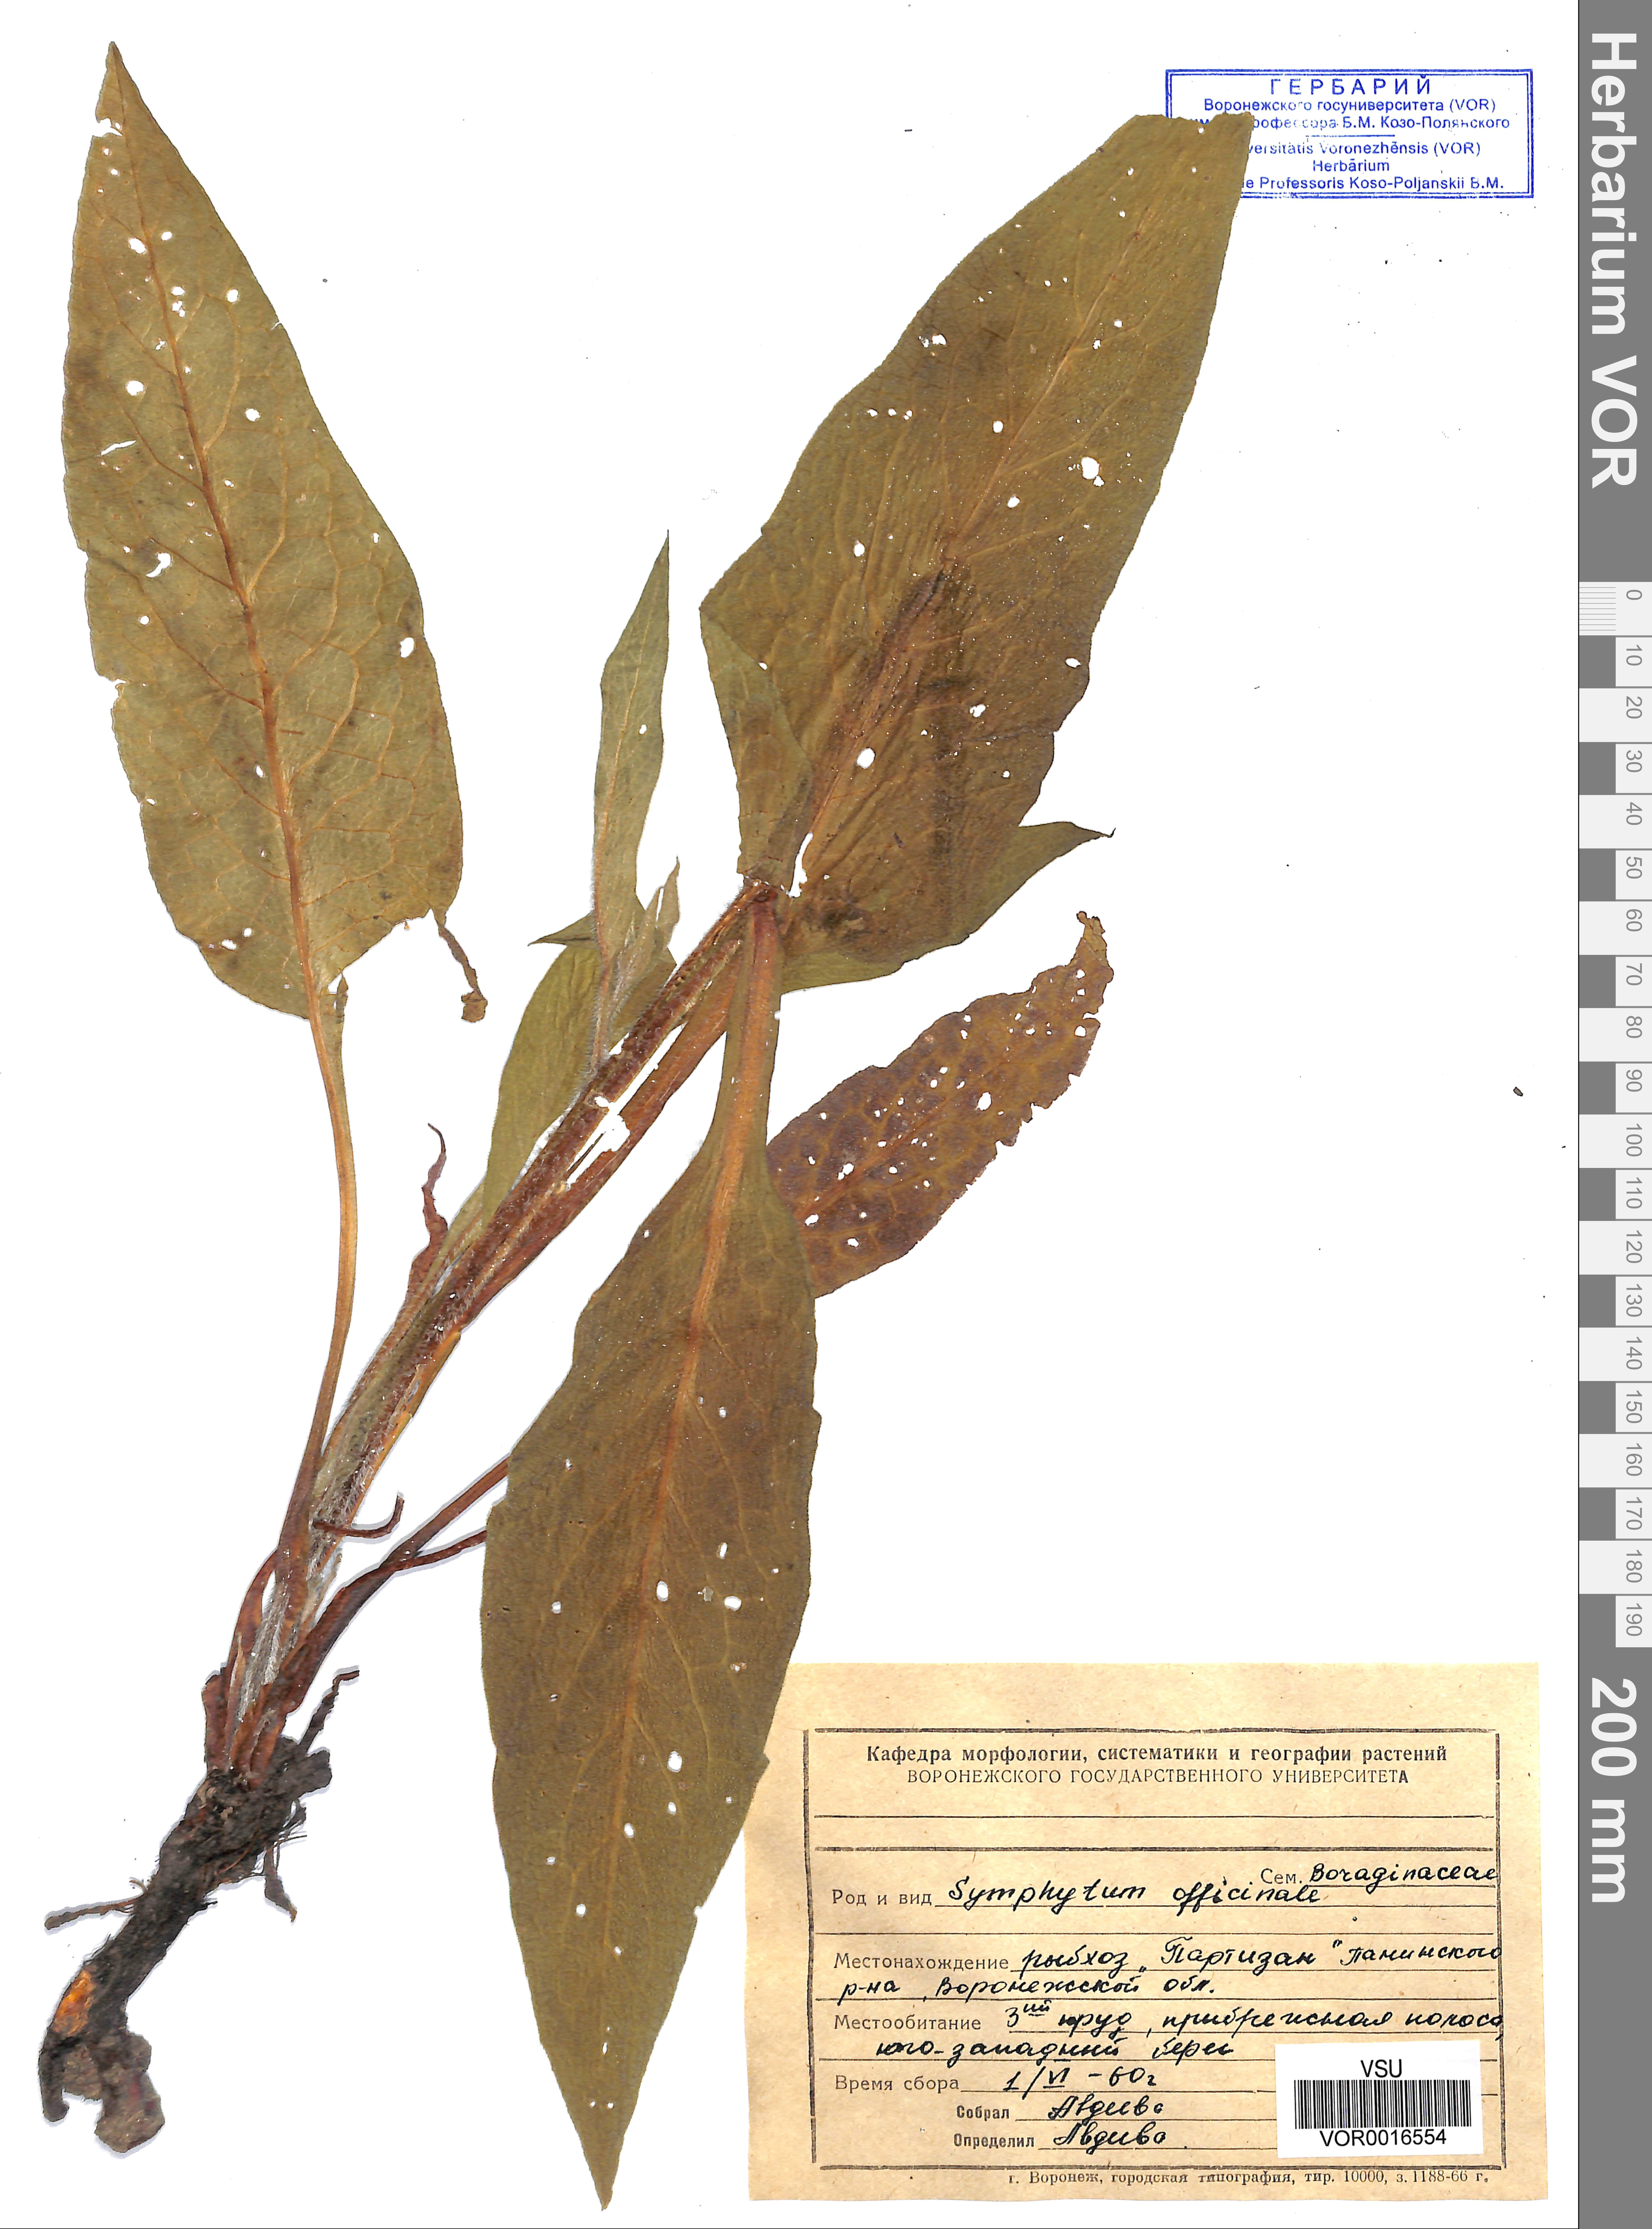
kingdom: Plantae
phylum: Tracheophyta
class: Magnoliopsida
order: Boraginales
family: Boraginaceae
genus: Symphytum
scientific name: Symphytum officinale
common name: Common comfrey
